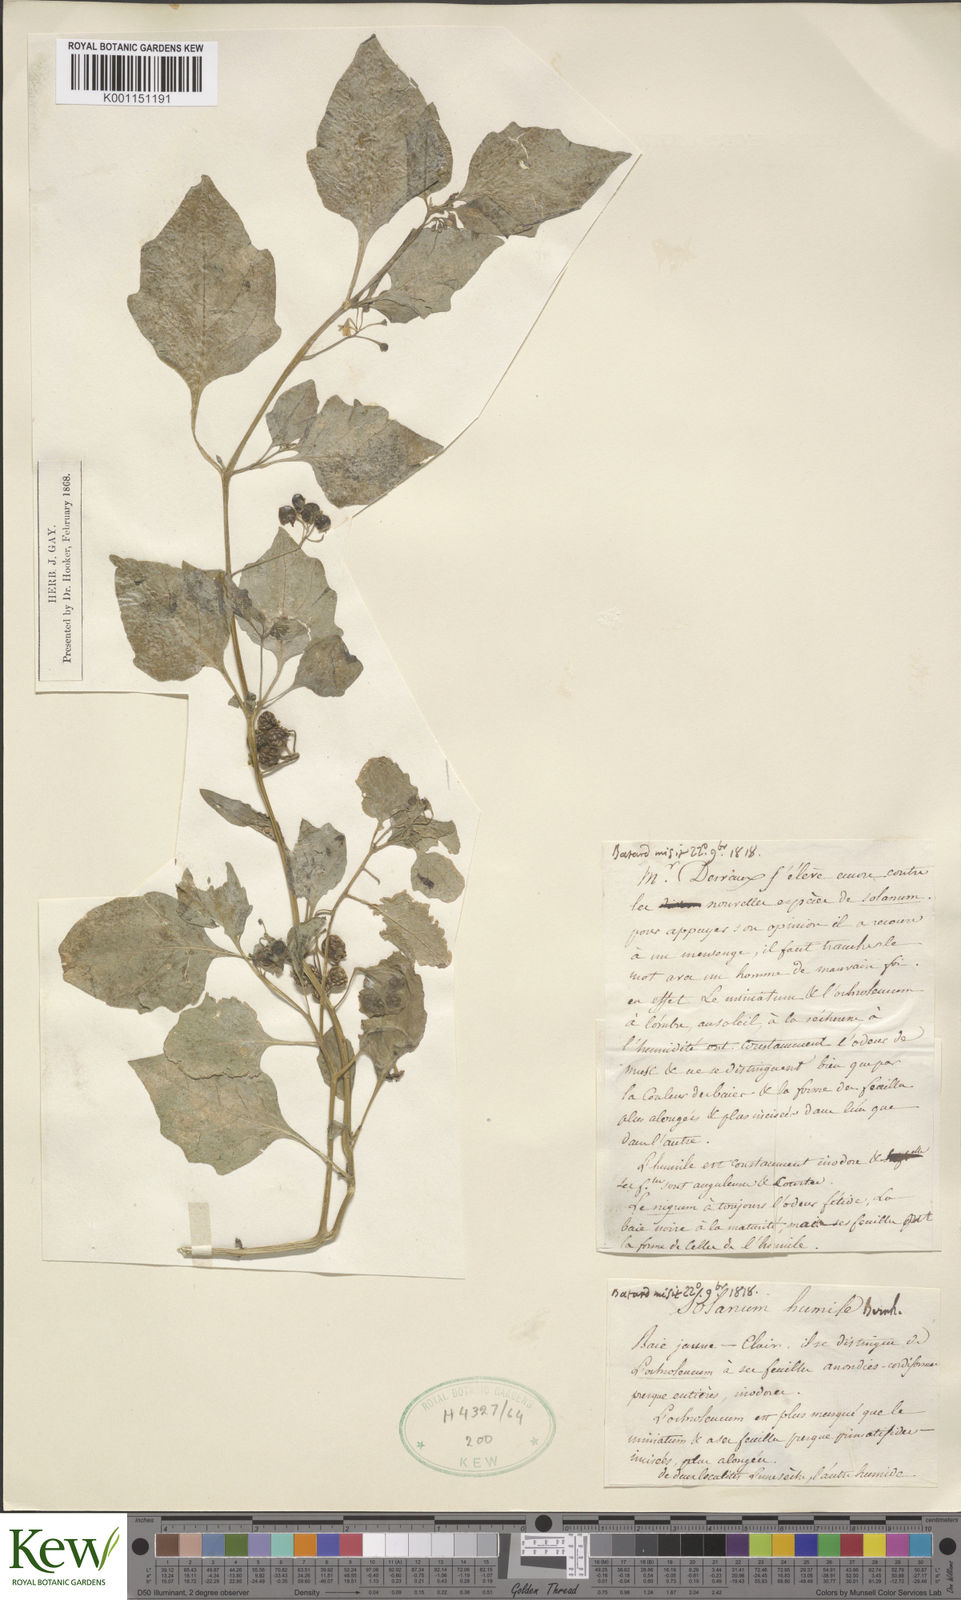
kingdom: Plantae
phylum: Tracheophyta
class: Magnoliopsida
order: Solanales
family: Solanaceae
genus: Solanum
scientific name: Solanum villosum
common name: Red nightshade
